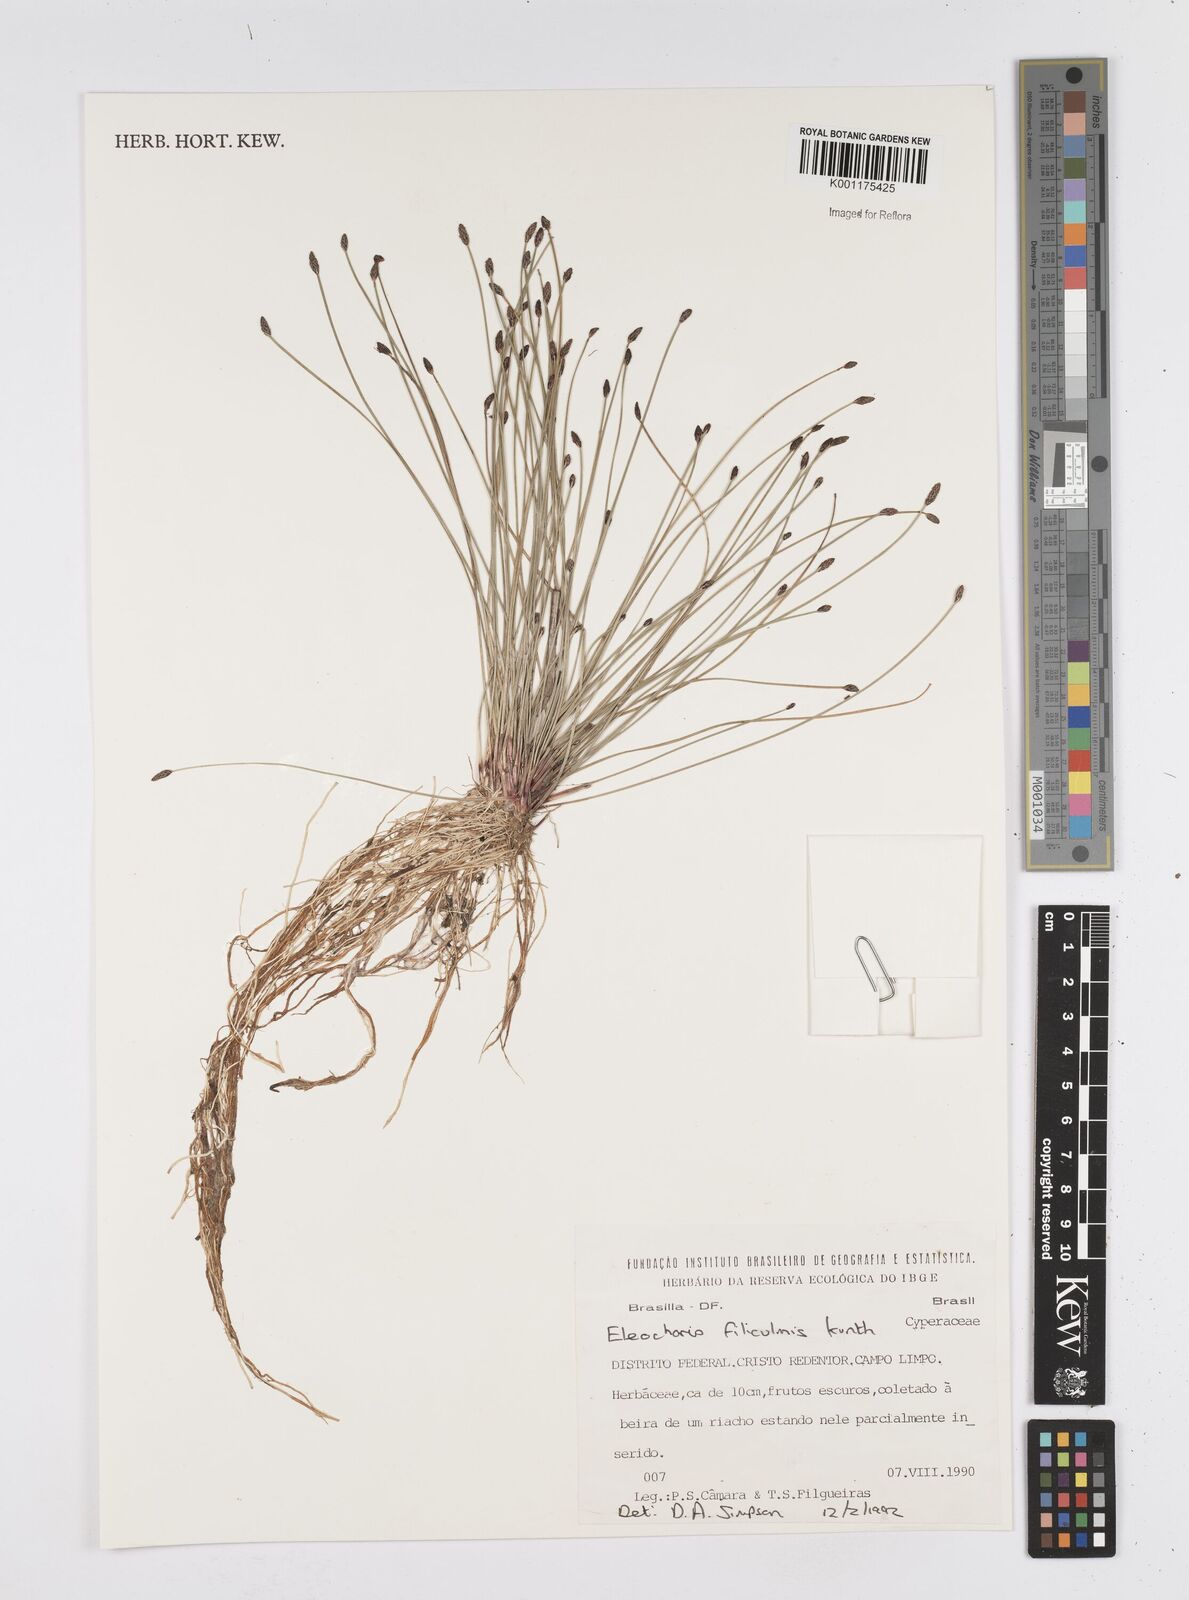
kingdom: Plantae
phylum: Tracheophyta
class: Liliopsida
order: Poales
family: Cyperaceae
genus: Eleocharis
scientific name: Eleocharis filiculmis
